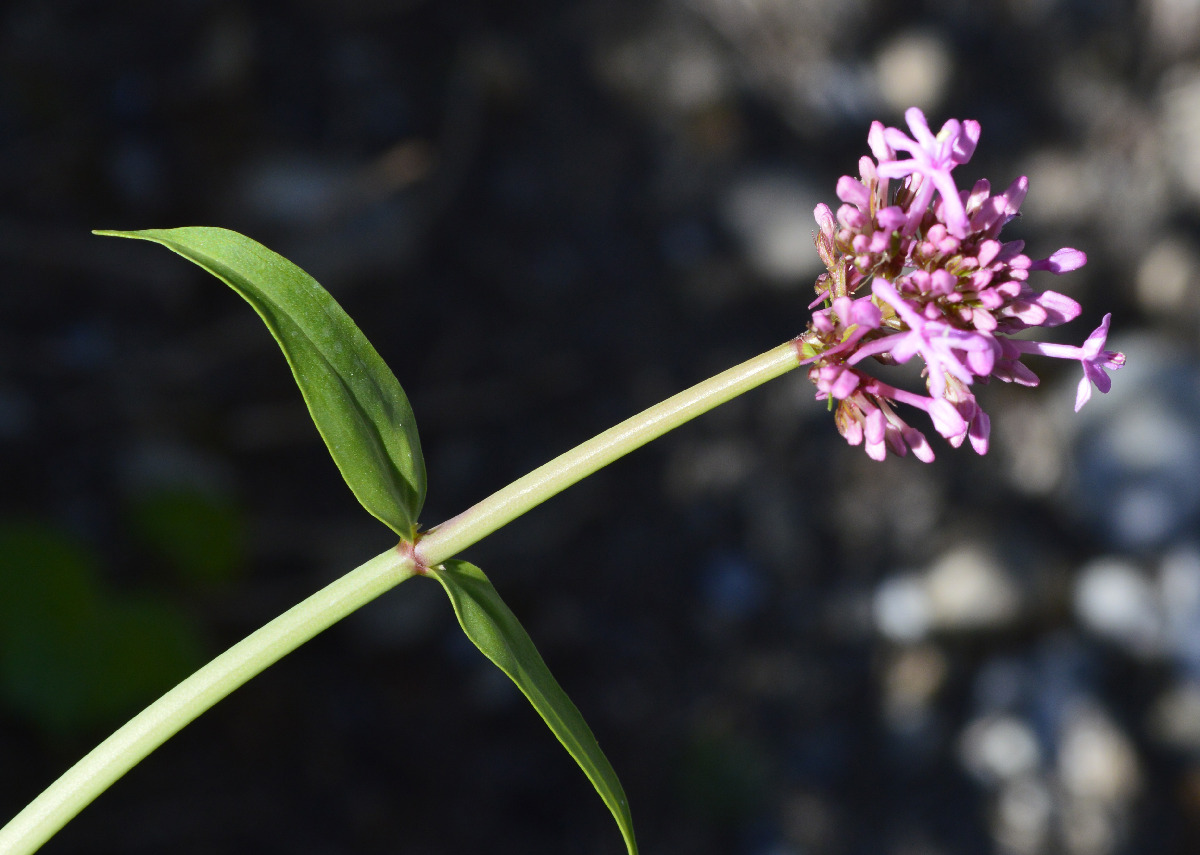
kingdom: Plantae
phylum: Tracheophyta
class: Magnoliopsida
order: Dipsacales
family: Caprifoliaceae
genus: Centranthus
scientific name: Centranthus ruber
